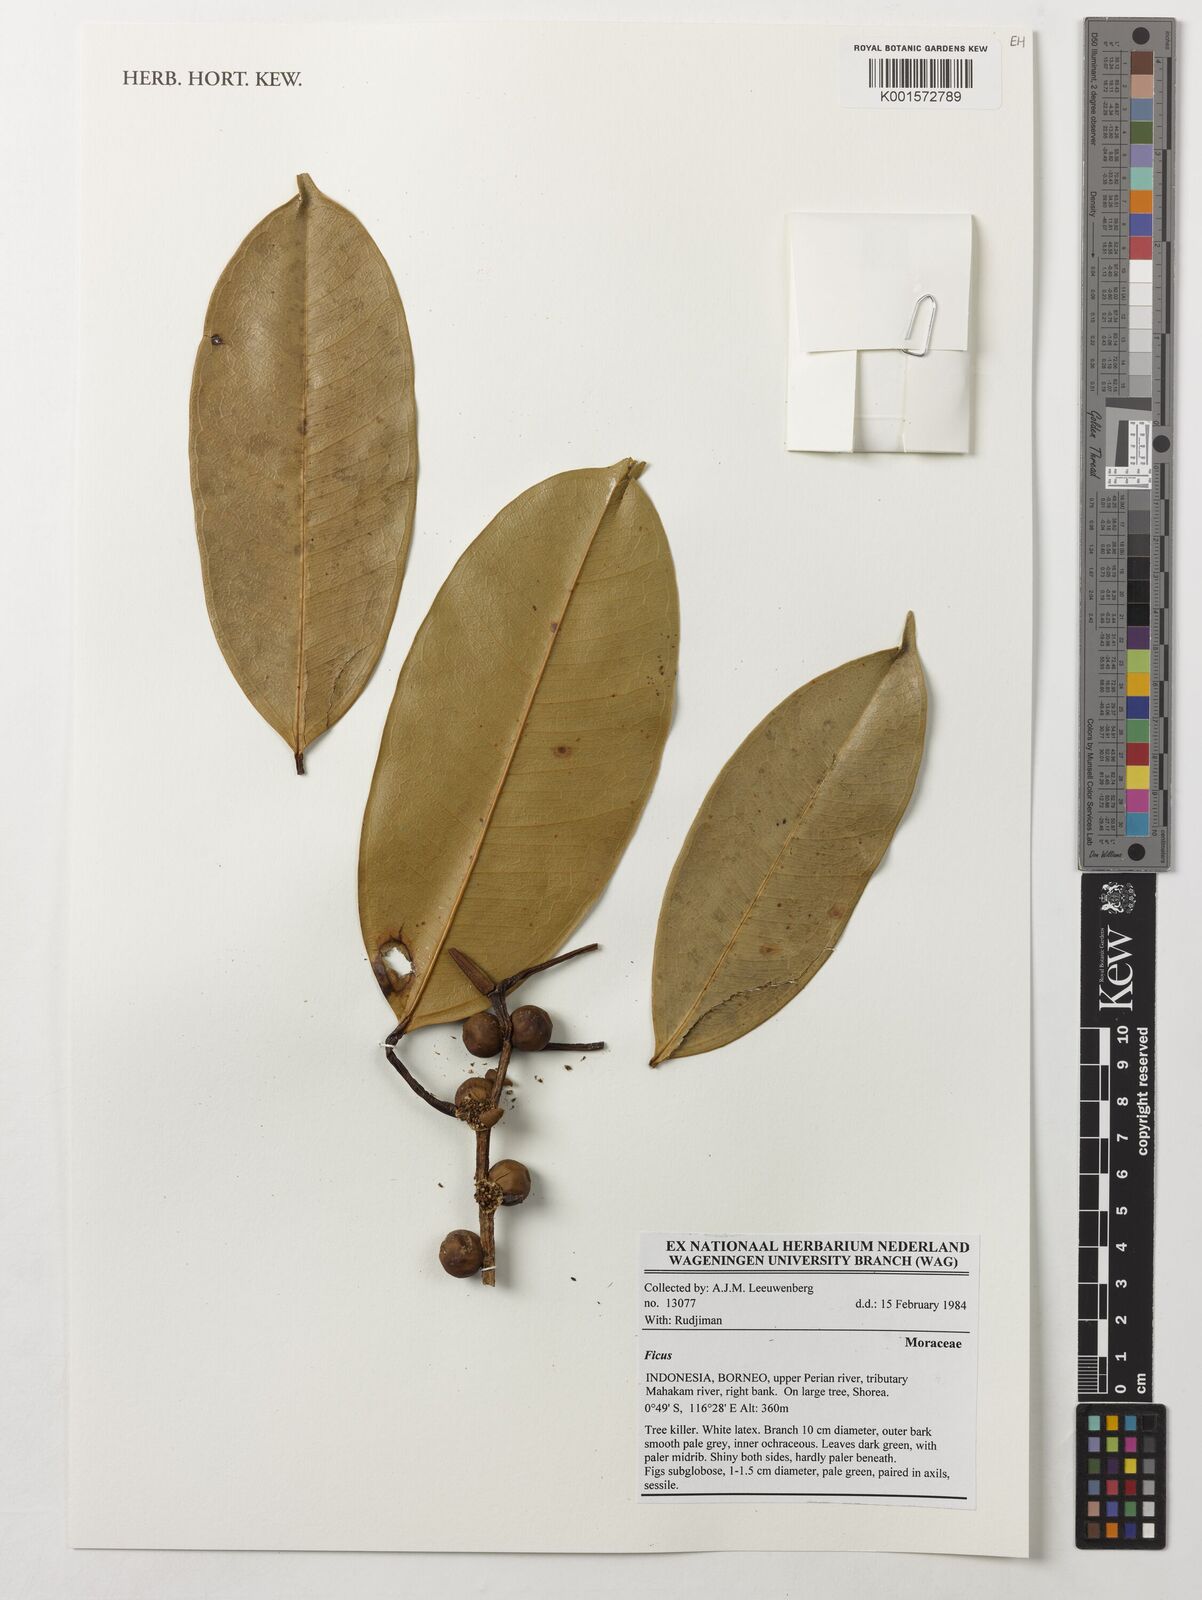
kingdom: Plantae
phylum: Tracheophyta
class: Magnoliopsida
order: Rosales
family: Moraceae
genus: Ficus
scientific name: Ficus
